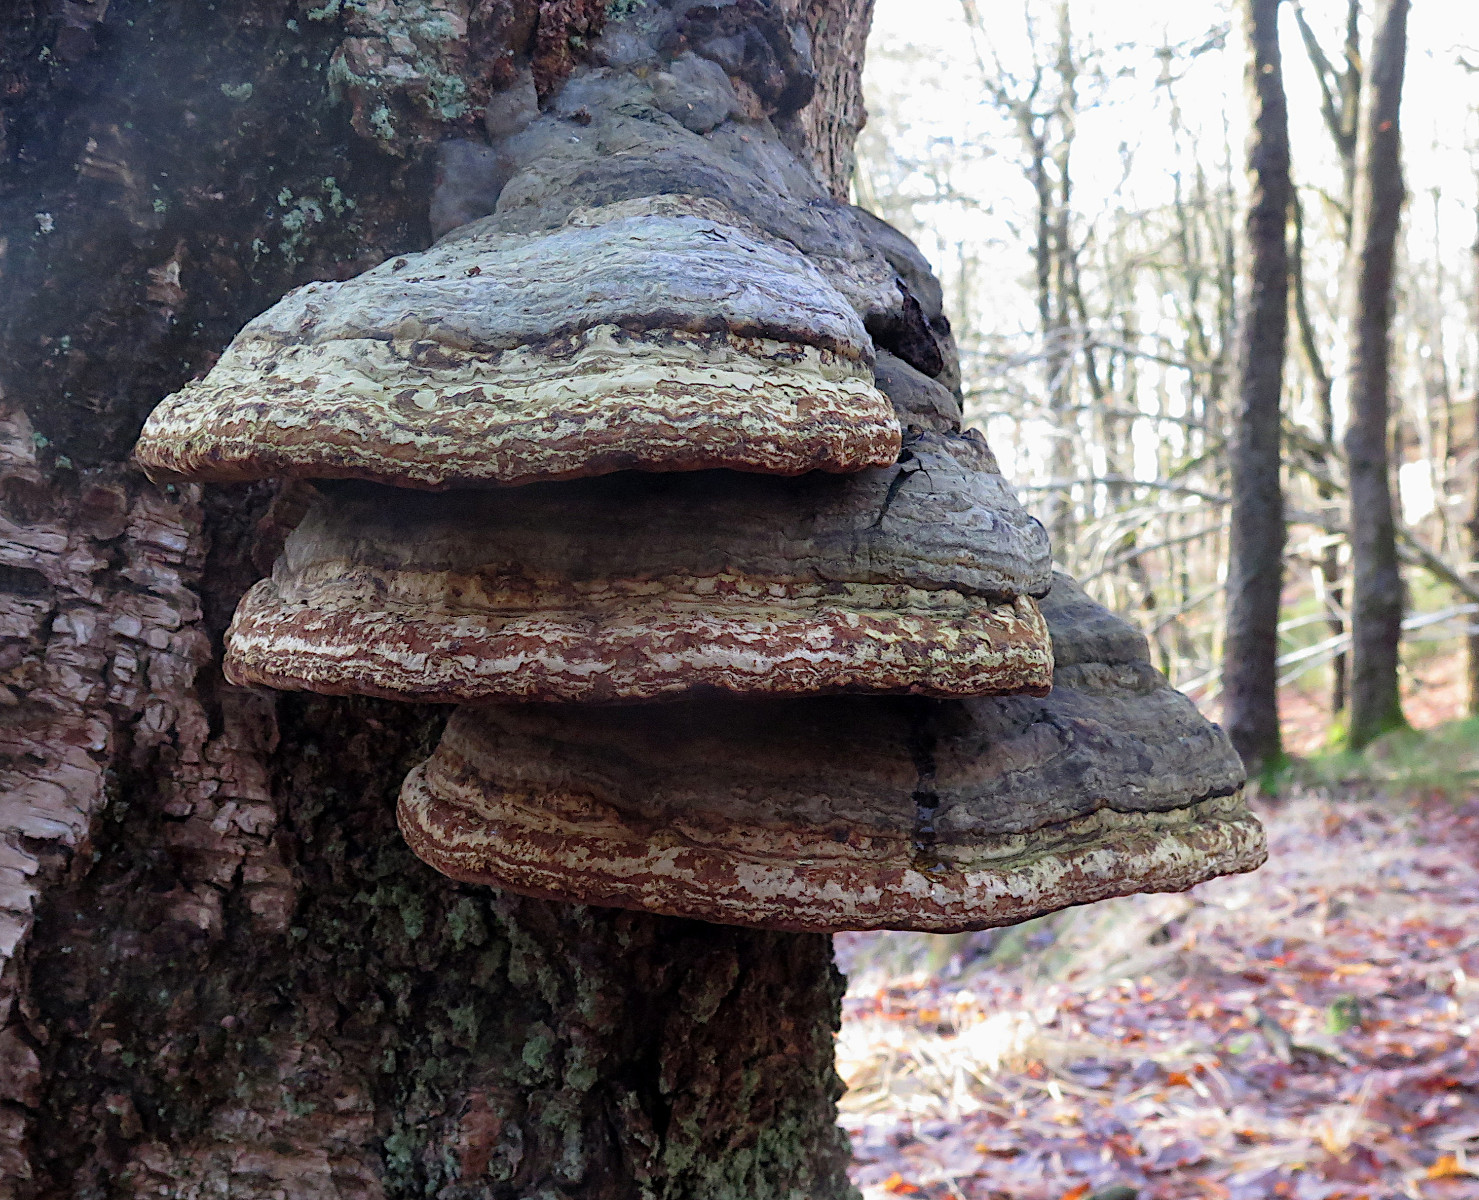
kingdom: Fungi
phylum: Basidiomycota
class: Agaricomycetes
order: Polyporales
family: Polyporaceae
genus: Fomes
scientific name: Fomes fomentarius
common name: tøndersvamp
